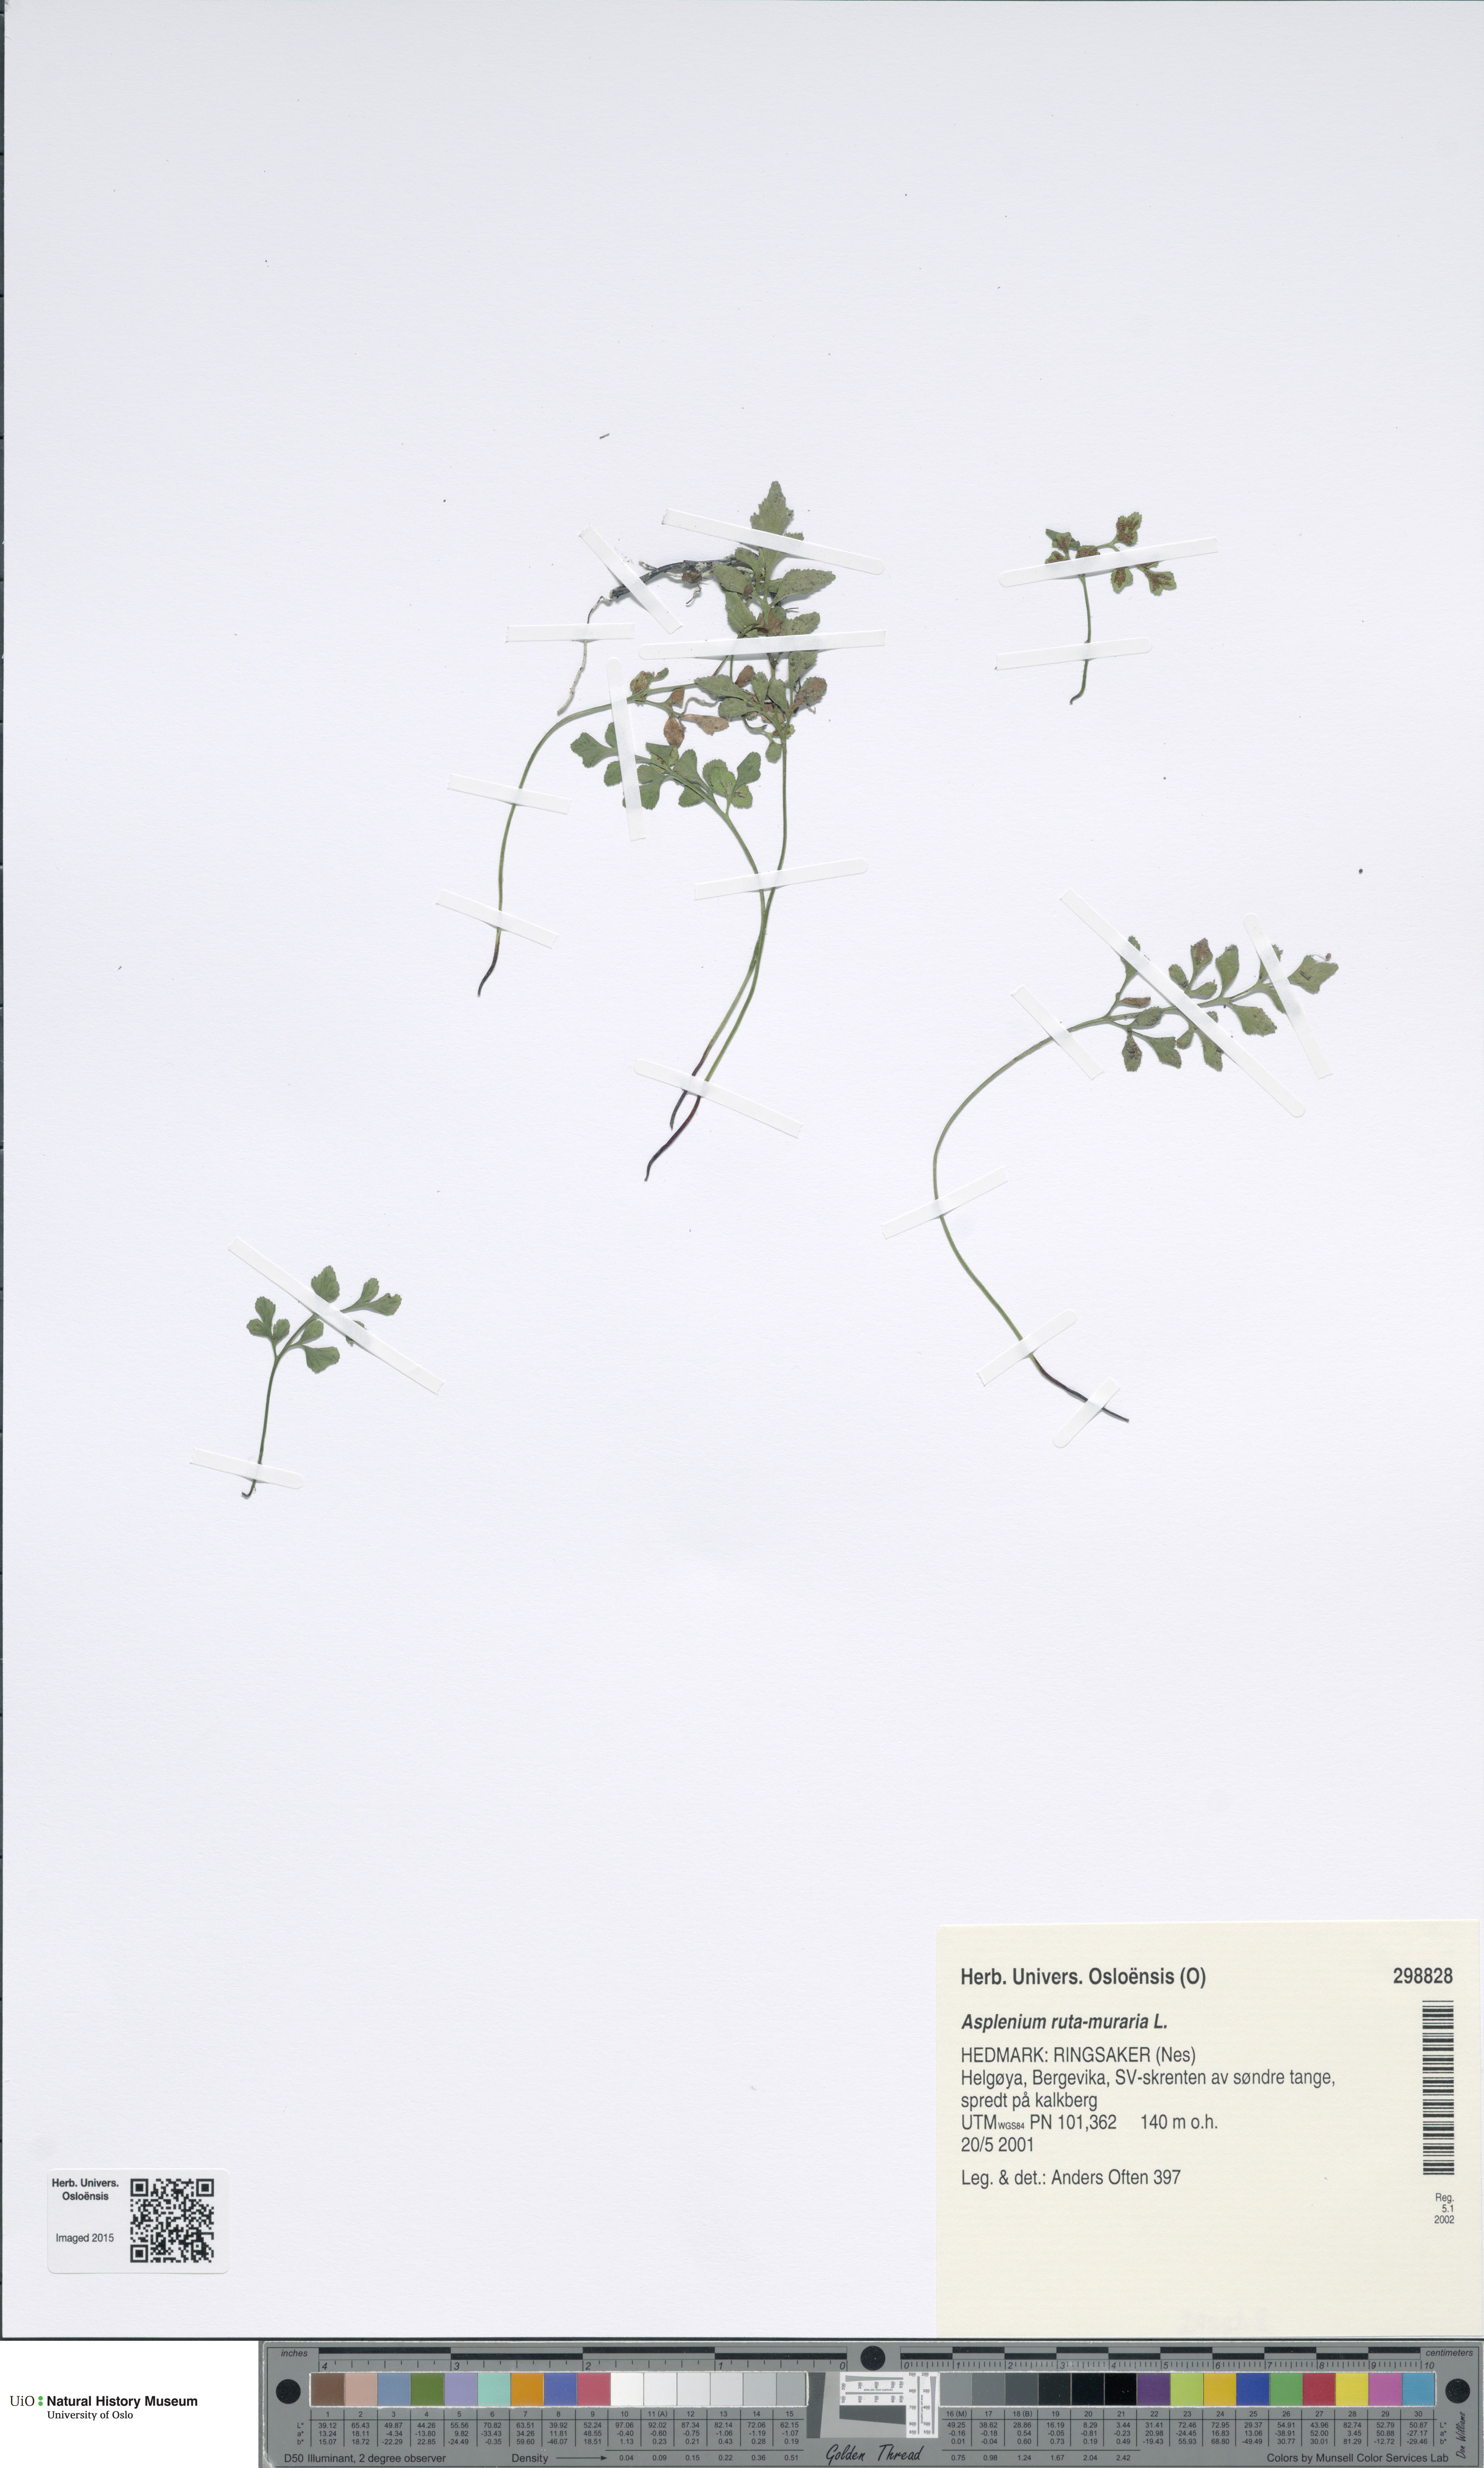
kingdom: Plantae
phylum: Tracheophyta
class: Polypodiopsida
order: Polypodiales
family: Aspleniaceae
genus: Asplenium
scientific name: Asplenium ruta-muraria
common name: Wall-rue
